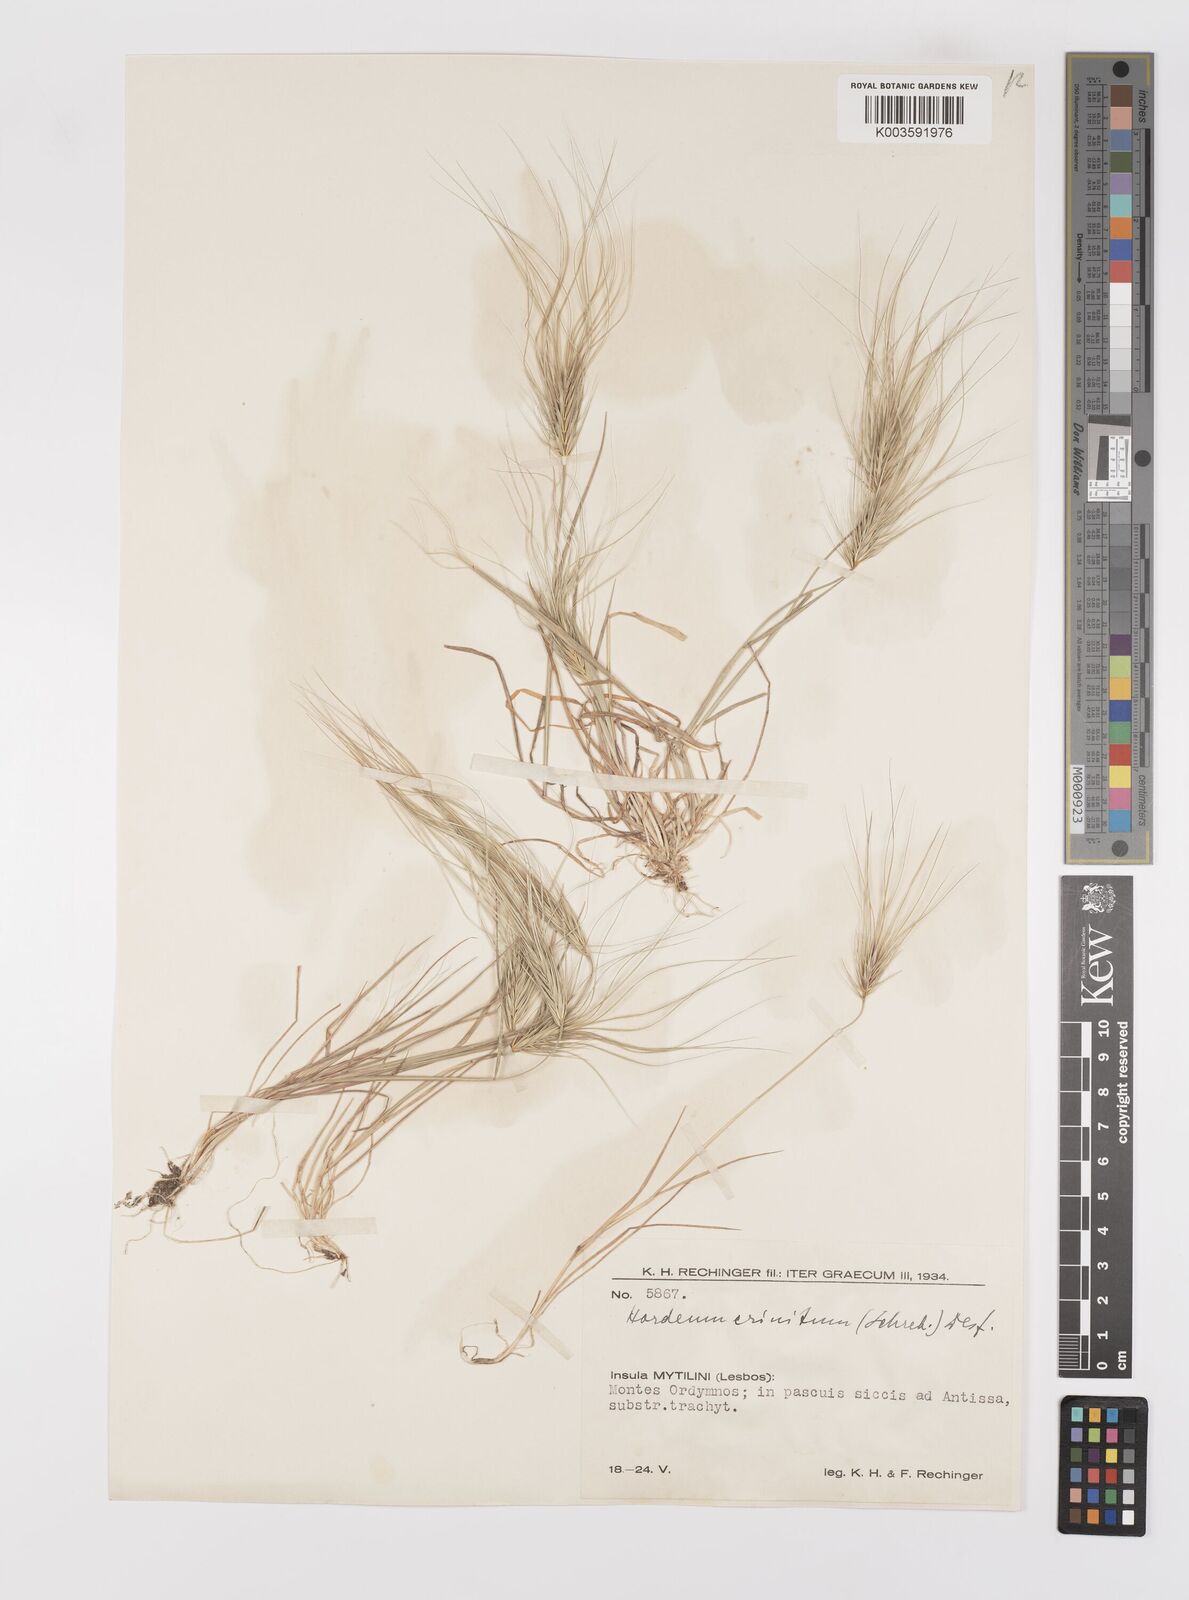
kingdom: Plantae
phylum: Tracheophyta
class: Liliopsida
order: Poales
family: Poaceae
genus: Taeniatherum
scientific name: Taeniatherum caput-medusae
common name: Medusahead
